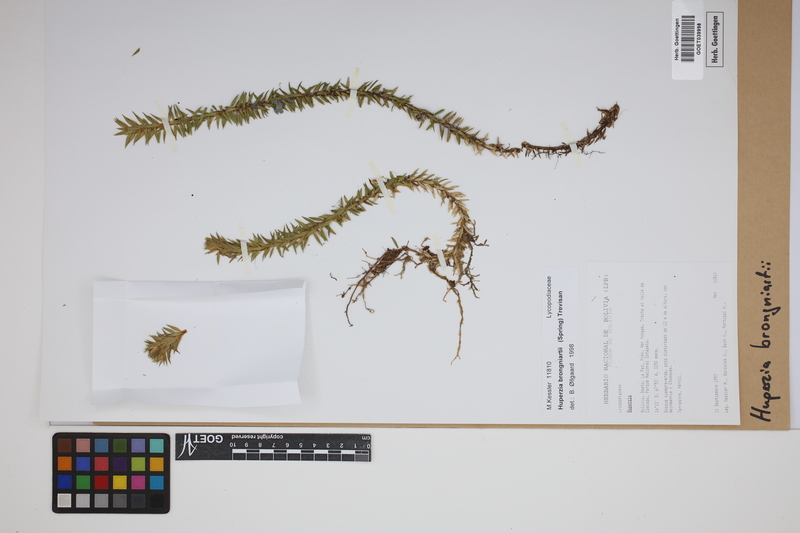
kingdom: Plantae
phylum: Tracheophyta
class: Lycopodiopsida
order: Lycopodiales
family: Lycopodiaceae
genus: Phlegmariurus
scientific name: Phlegmariurus brongniartii
